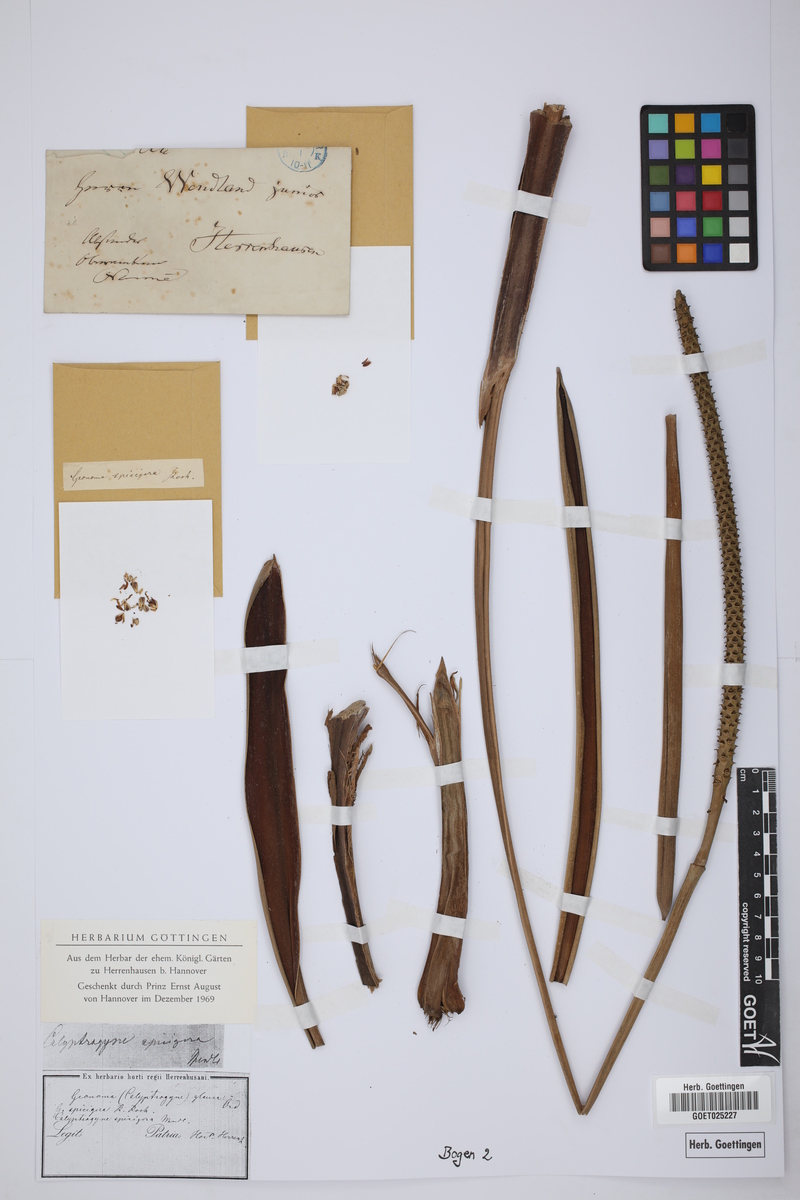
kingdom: Plantae
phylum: Tracheophyta
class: Liliopsida
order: Arecales
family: Arecaceae
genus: Calyptrogyne
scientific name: Calyptrogyne ghiesbreghtiana
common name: Coligallo
